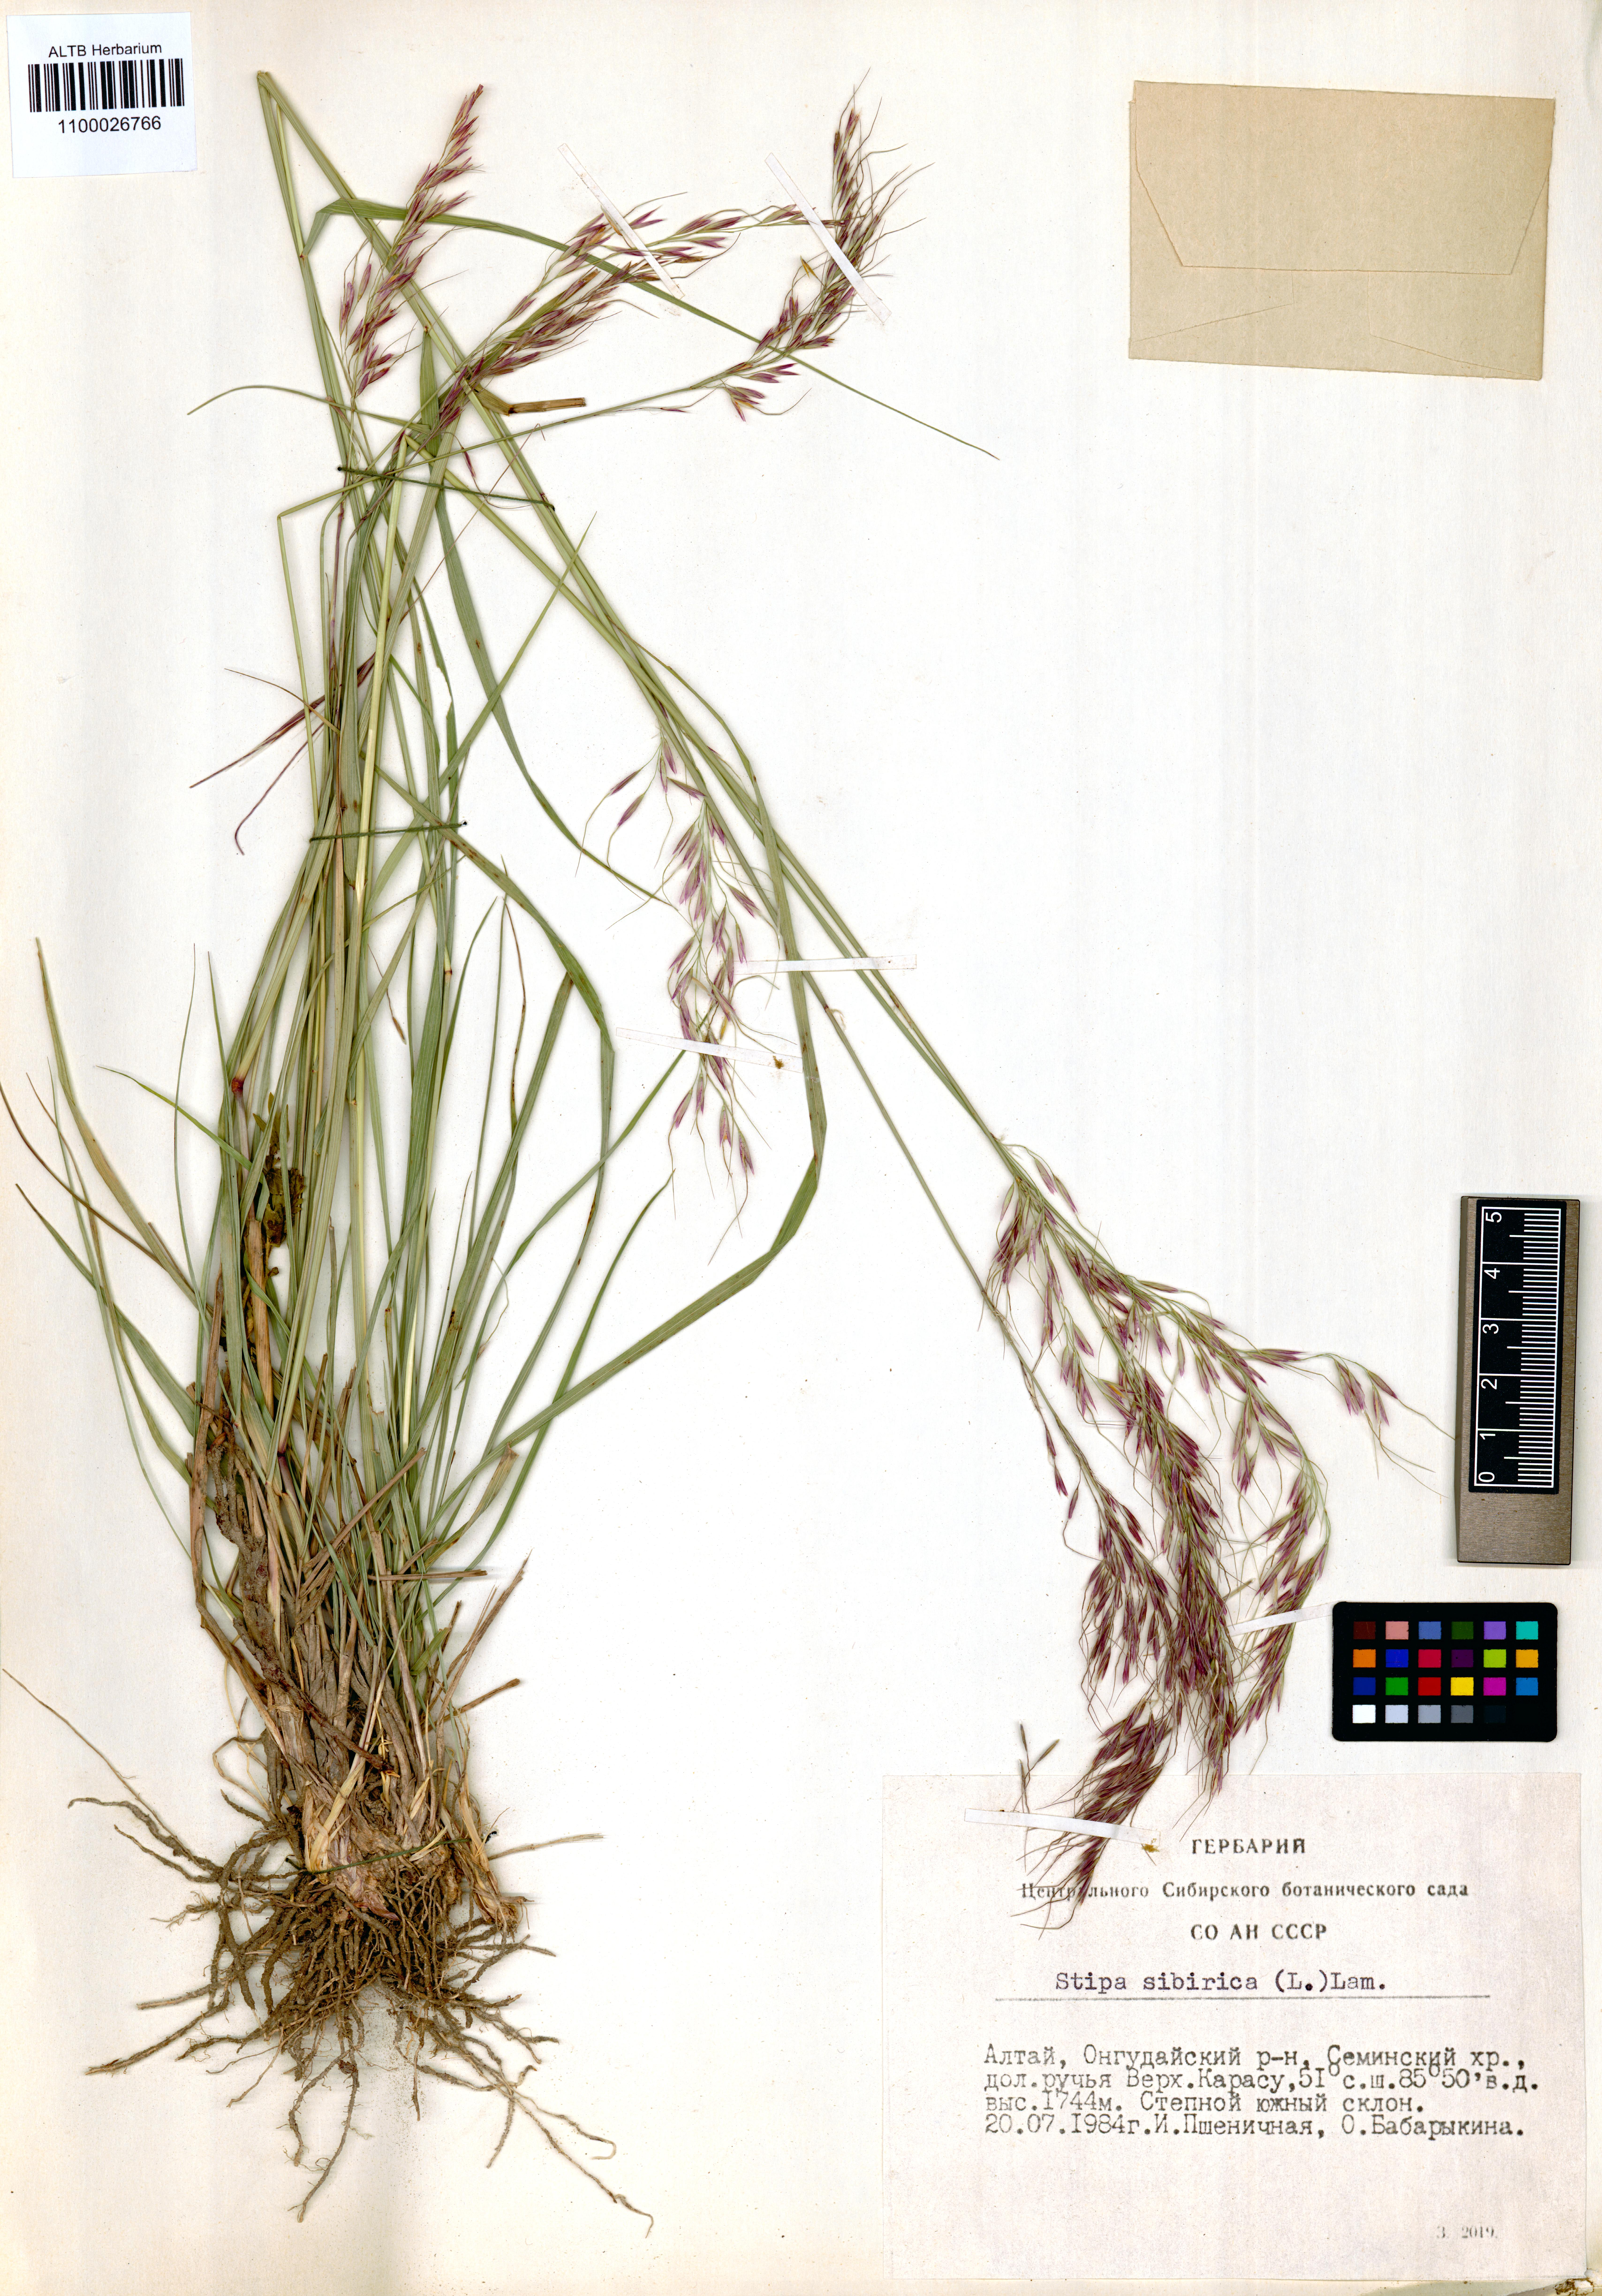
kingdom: Plantae
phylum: Tracheophyta
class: Liliopsida
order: Poales
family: Poaceae
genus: Achnatherum
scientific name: Achnatherum sibiricum
